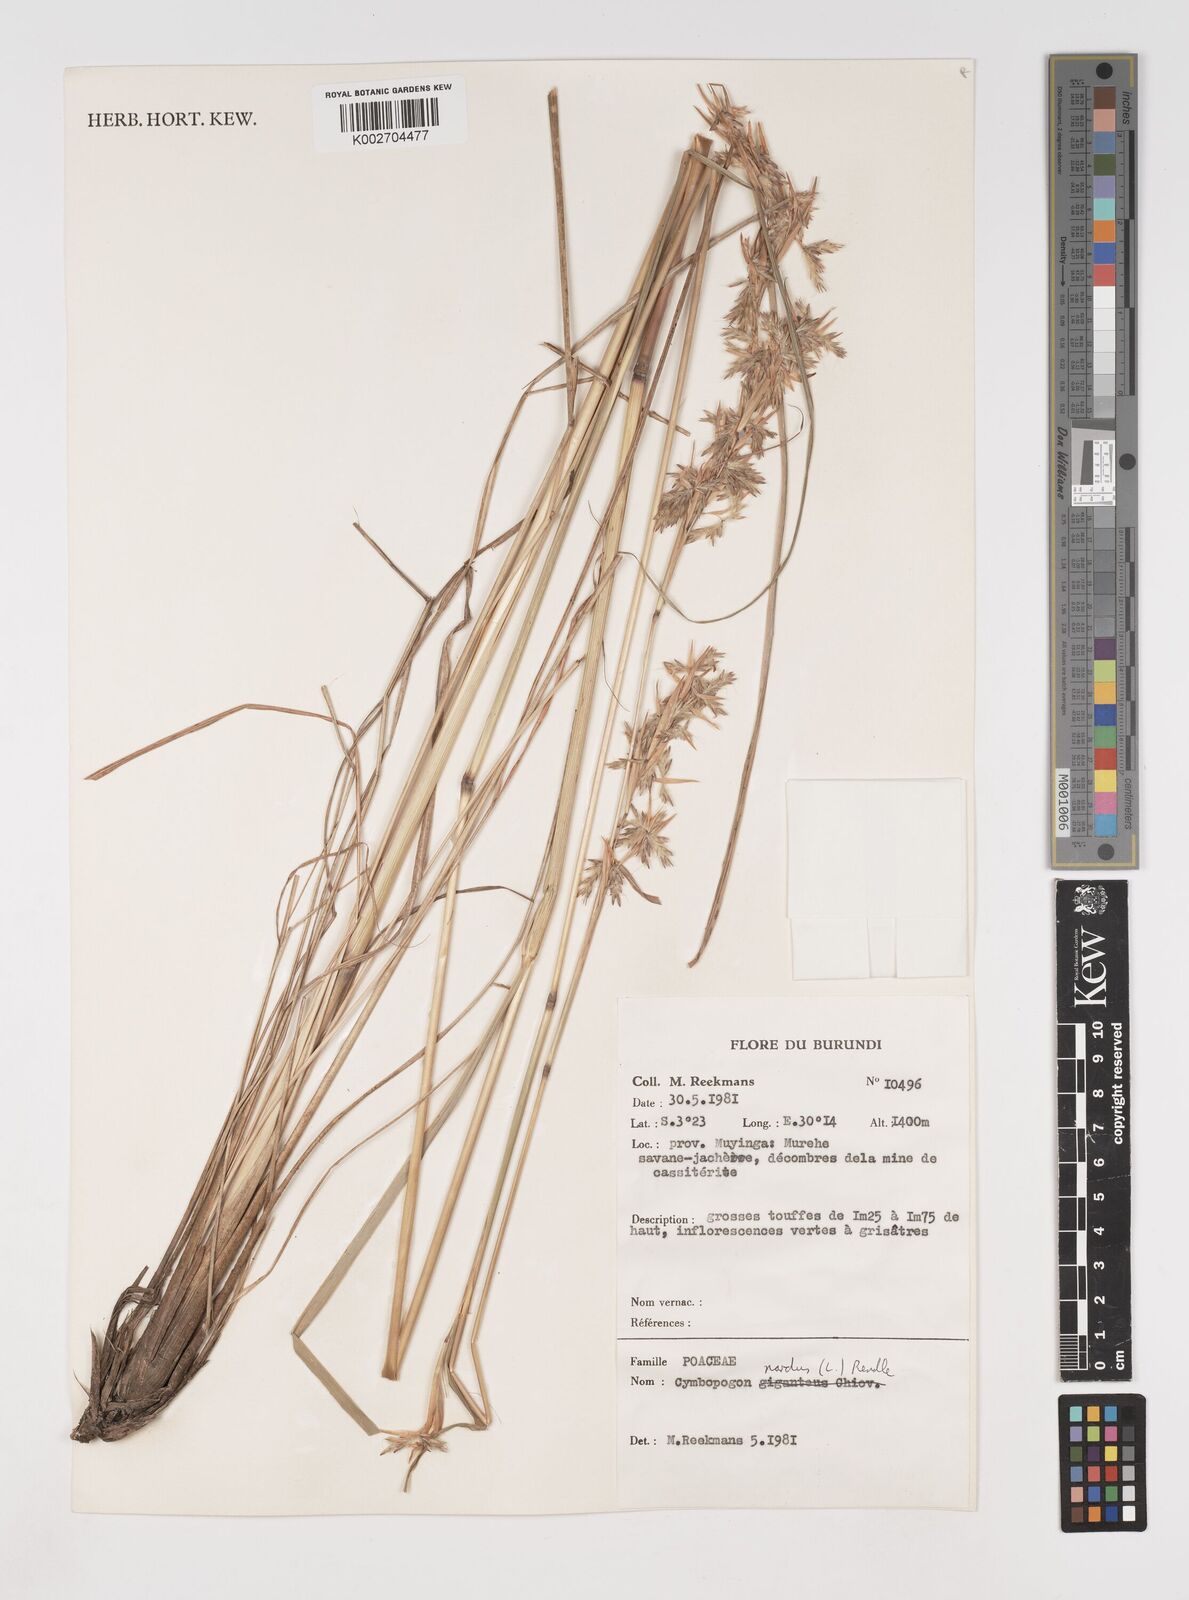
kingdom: Plantae
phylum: Tracheophyta
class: Liliopsida
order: Poales
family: Poaceae
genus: Cymbopogon
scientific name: Cymbopogon nardus
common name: Giant turpentine grass
